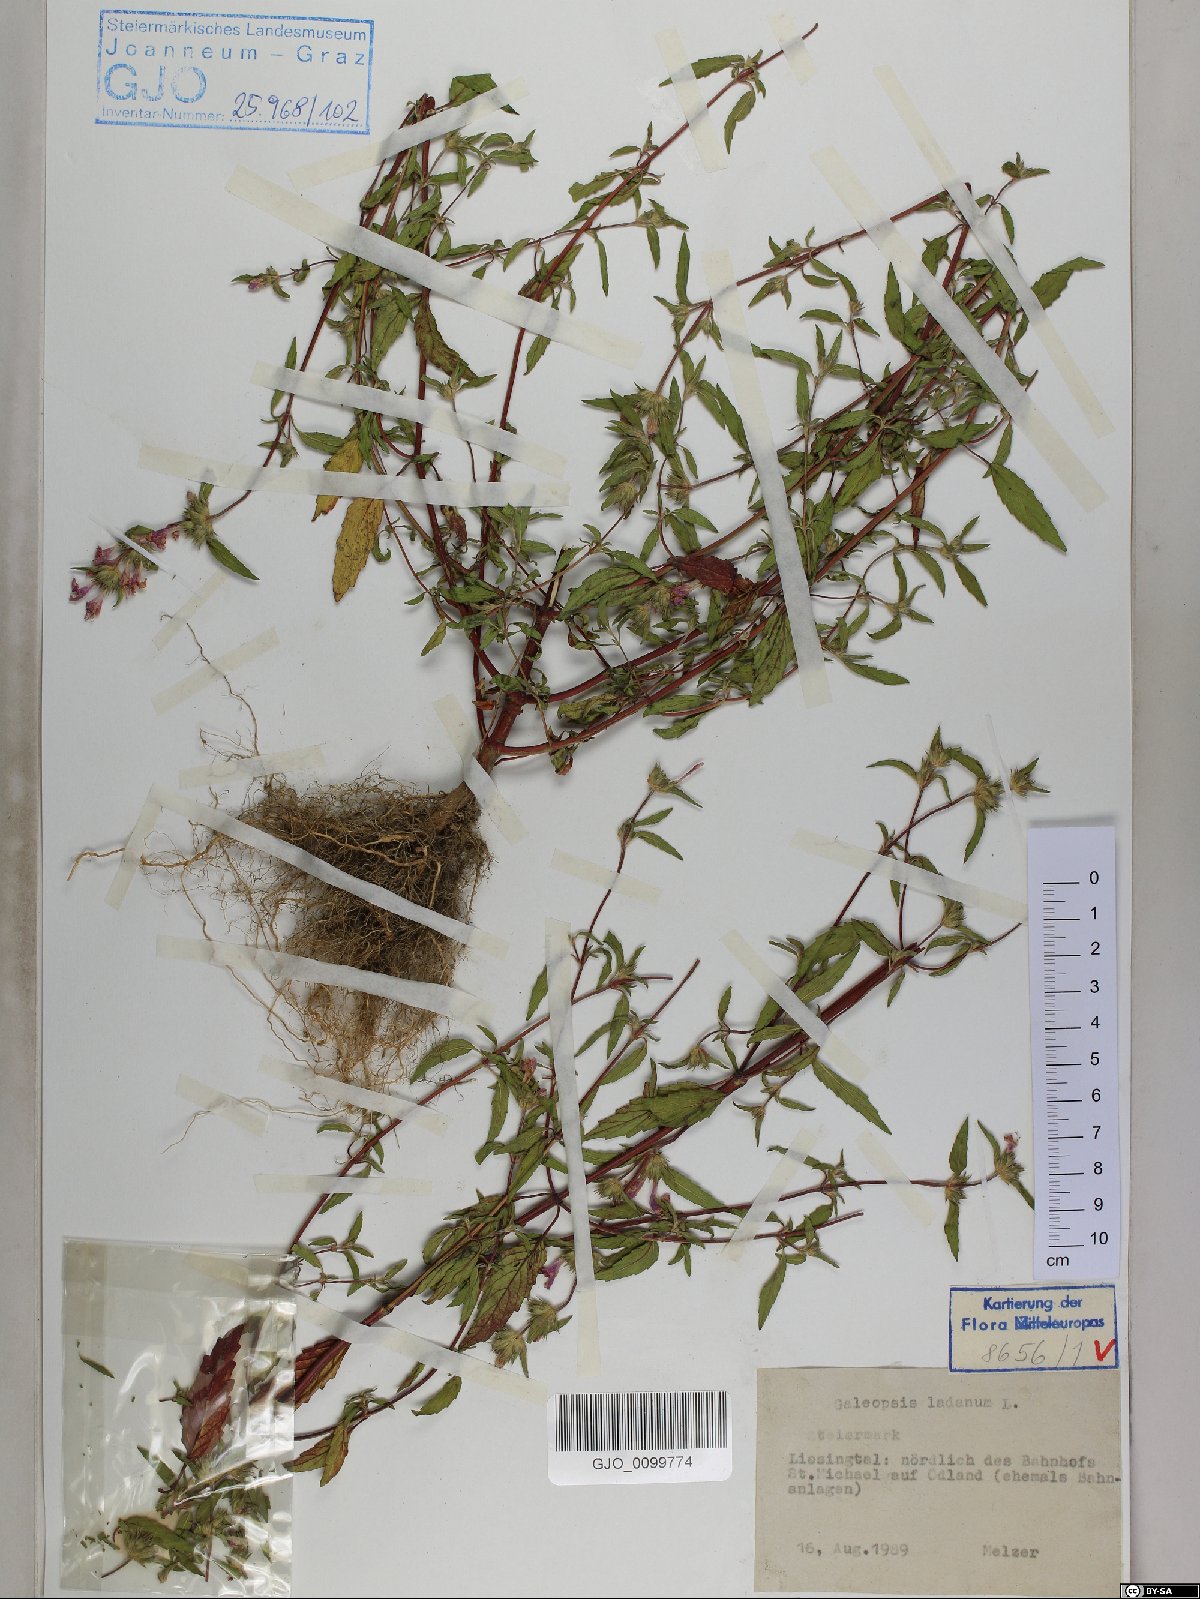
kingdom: Plantae
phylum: Tracheophyta
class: Magnoliopsida
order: Lamiales
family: Lamiaceae
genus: Galeopsis
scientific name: Galeopsis ladanum
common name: Broad-leaved hemp-nettle
